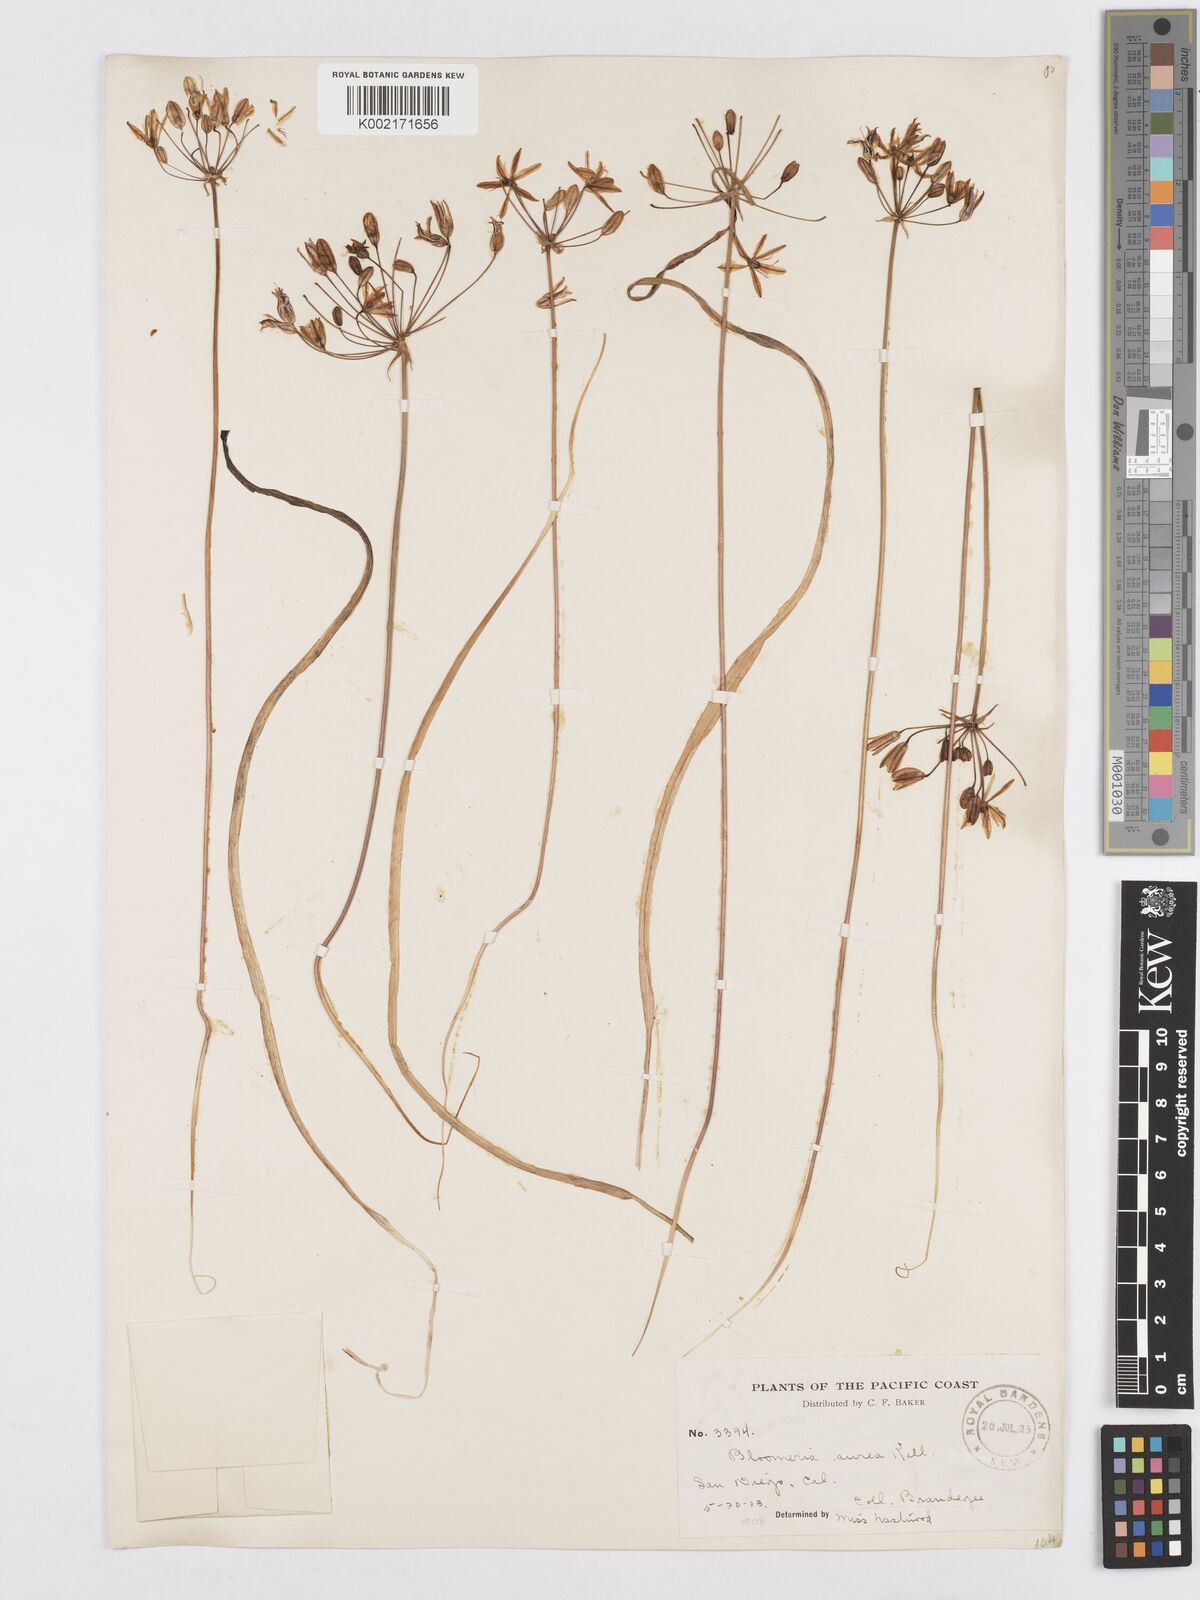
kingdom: Plantae
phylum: Tracheophyta
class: Liliopsida
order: Asparagales
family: Asparagaceae
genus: Bloomeria
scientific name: Bloomeria crocea
